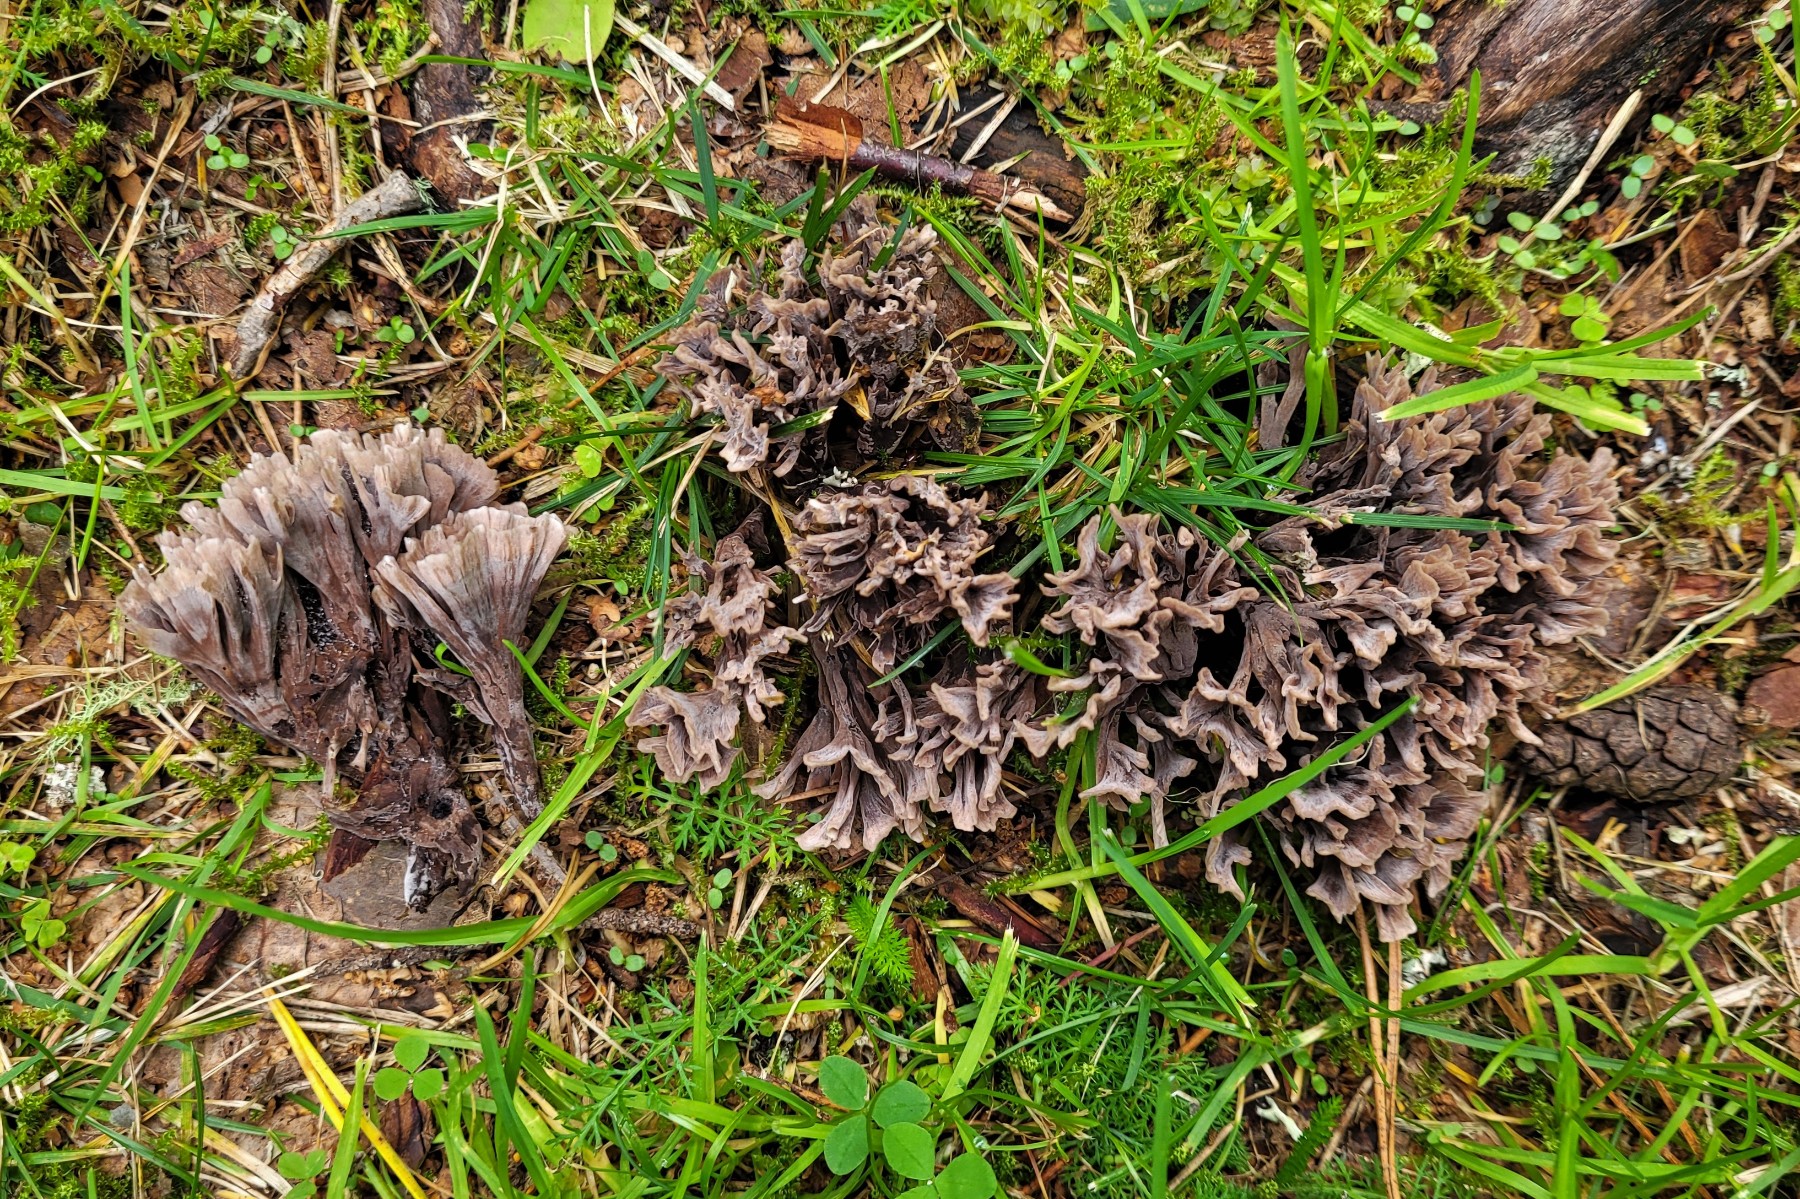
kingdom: Fungi
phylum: Basidiomycota
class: Agaricomycetes
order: Thelephorales
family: Thelephoraceae
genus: Thelephora
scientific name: Thelephora palmata
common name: grenet frynsesvamp
